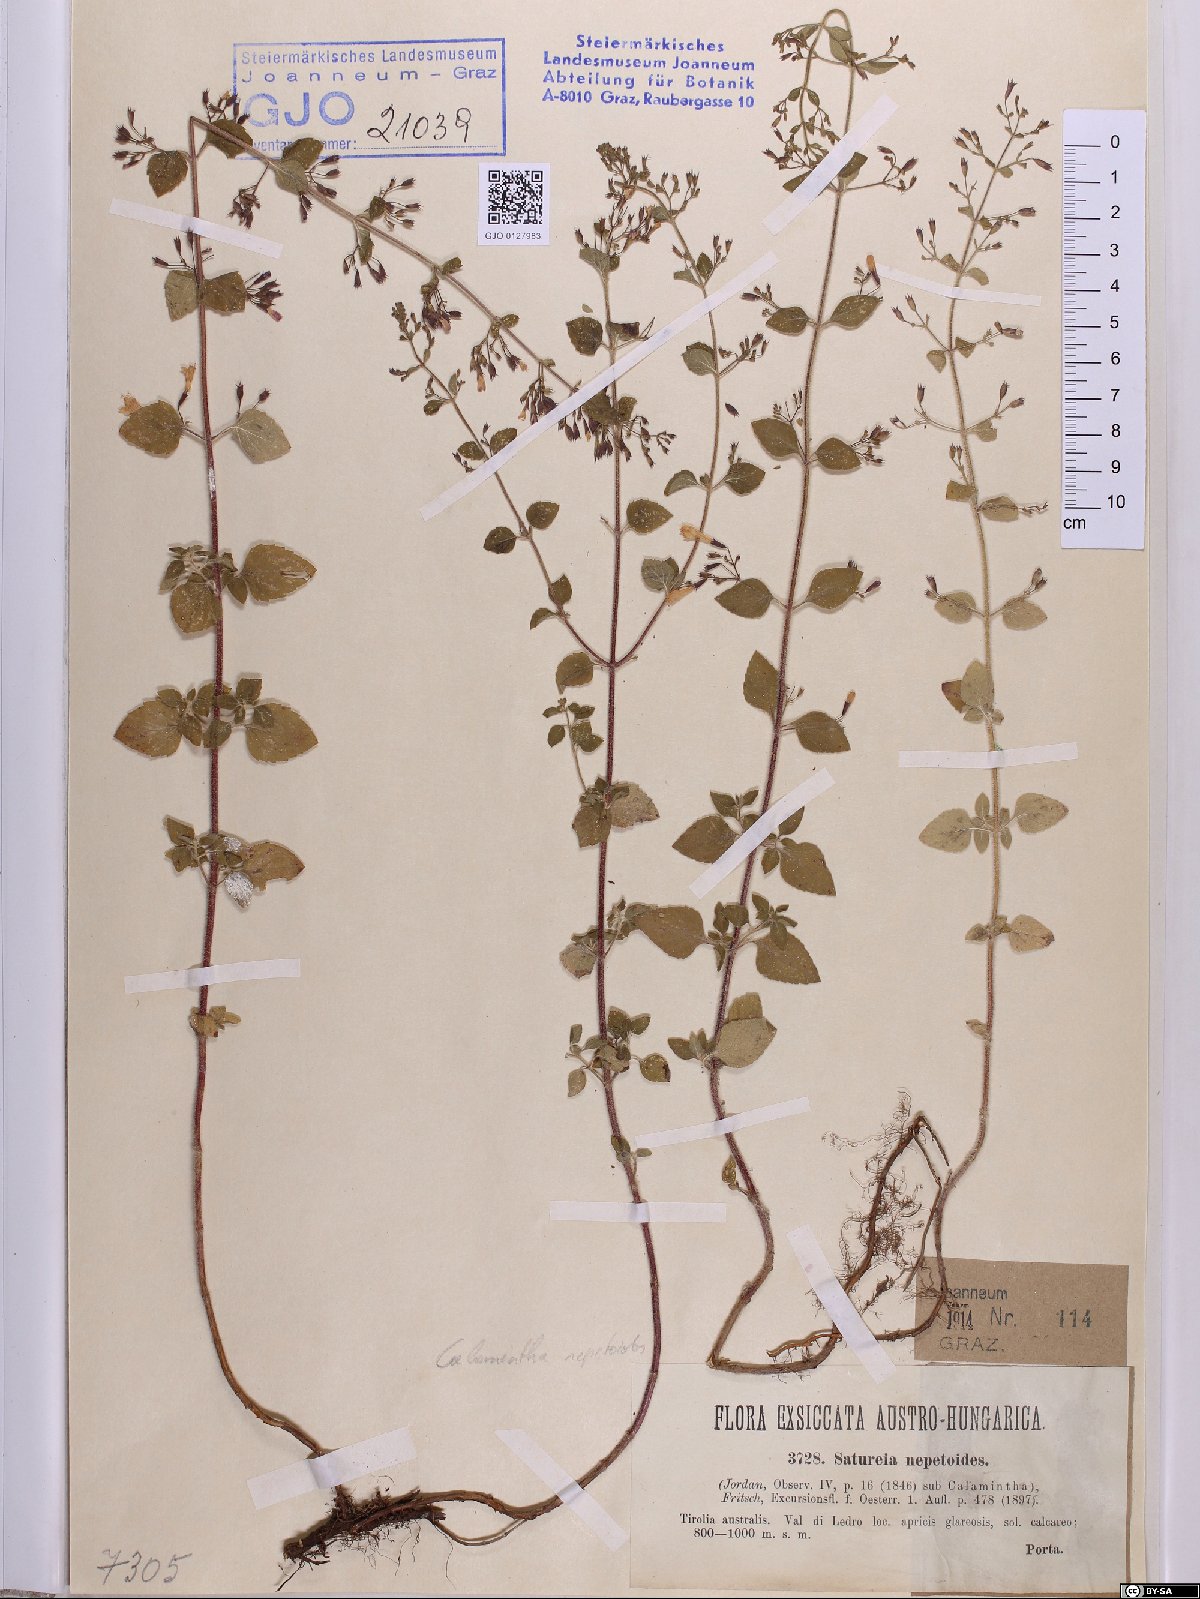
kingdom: Plantae
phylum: Tracheophyta
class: Magnoliopsida
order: Lamiales
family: Lamiaceae
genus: Clinopodium
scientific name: Clinopodium nepeta
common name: Lesser calamint
